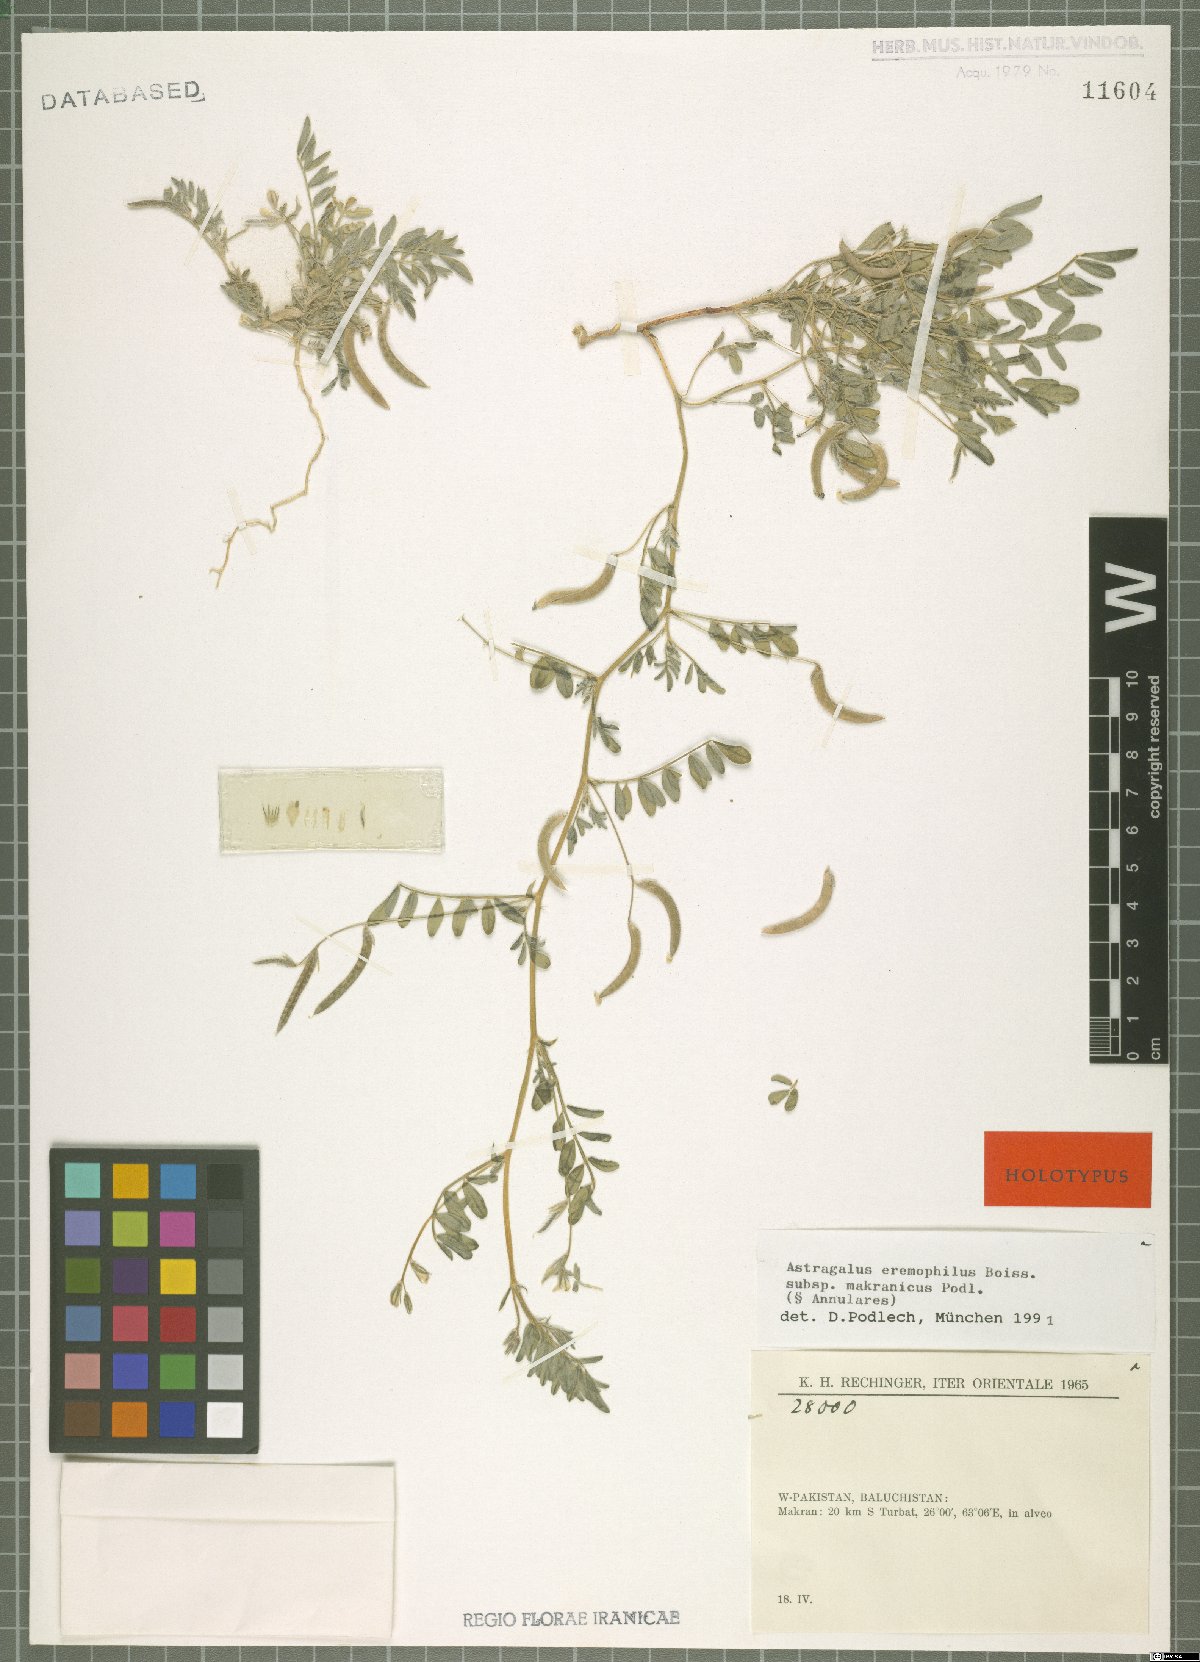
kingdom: Plantae
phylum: Tracheophyta
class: Magnoliopsida
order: Fabales
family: Fabaceae
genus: Astragalus
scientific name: Astragalus eremophilus
